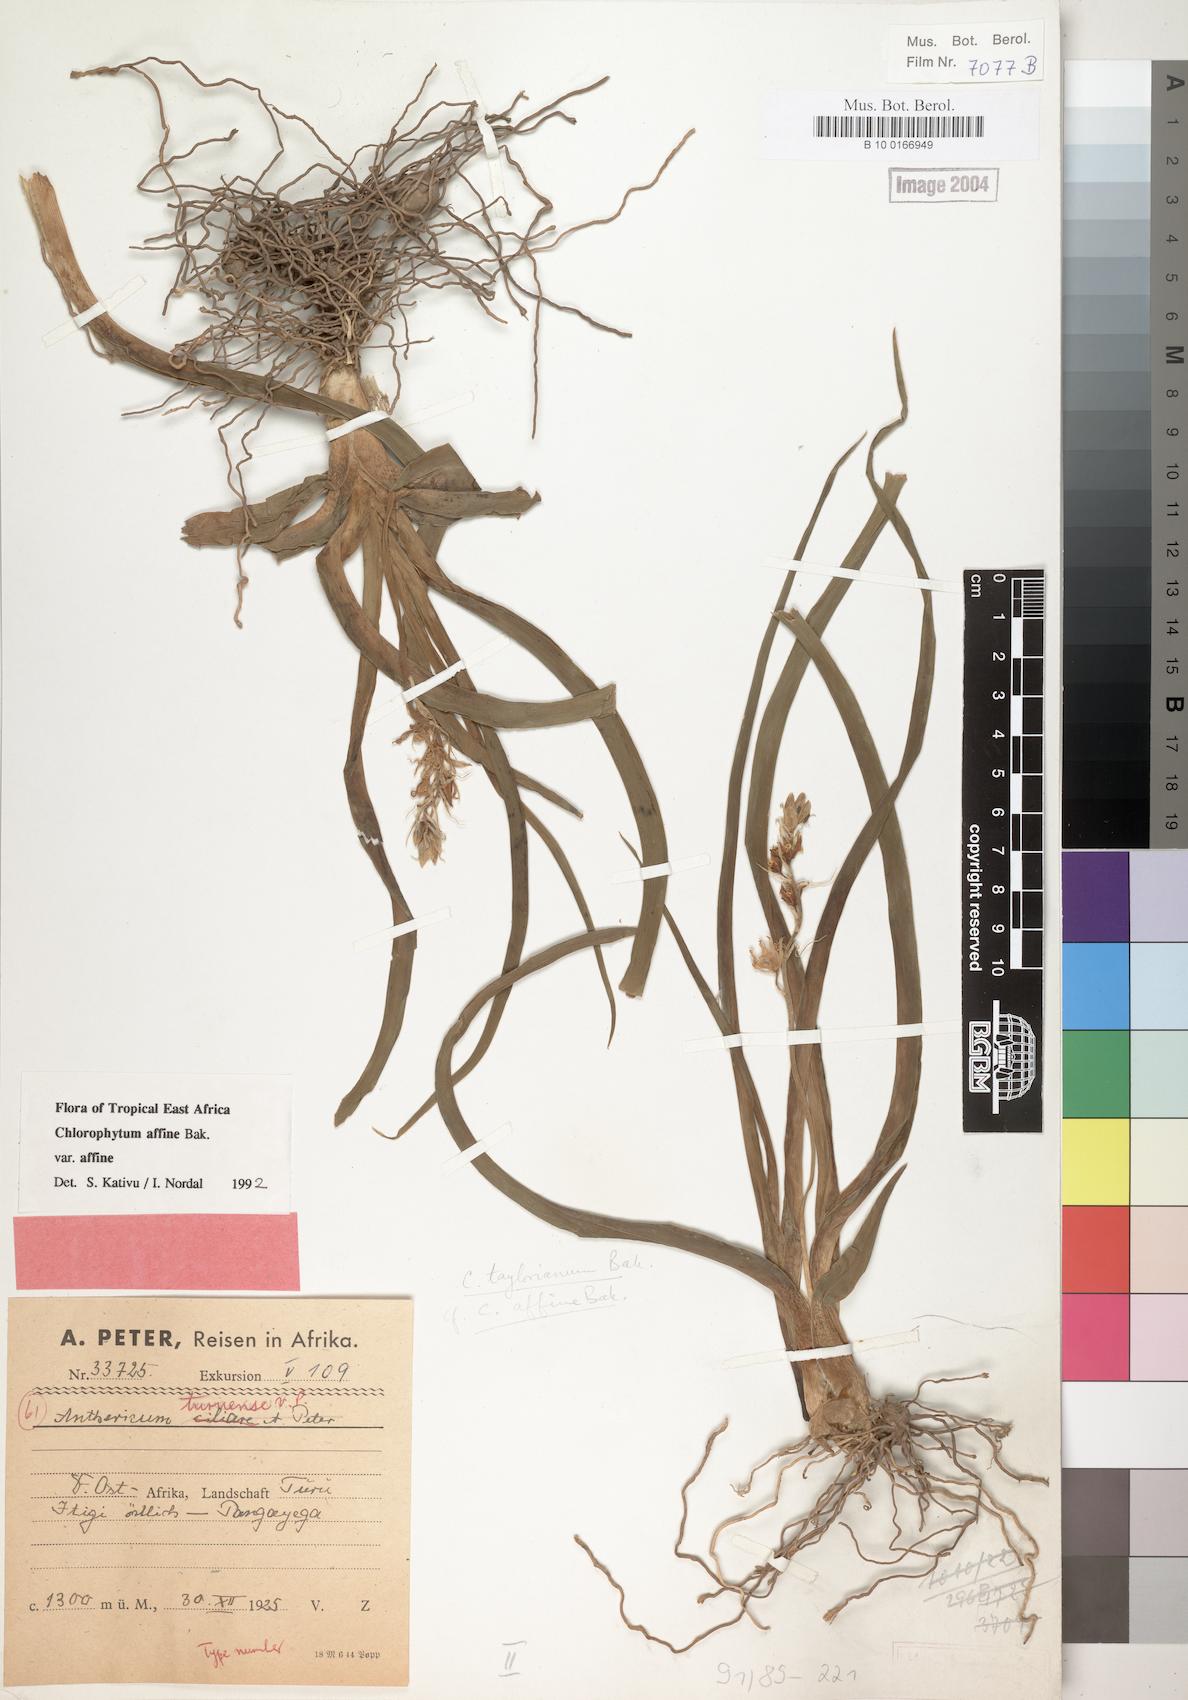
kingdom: Plantae
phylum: Tracheophyta
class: Liliopsida
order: Asparagales
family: Asparagaceae
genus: Chlorophytum
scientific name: Chlorophytum affine
